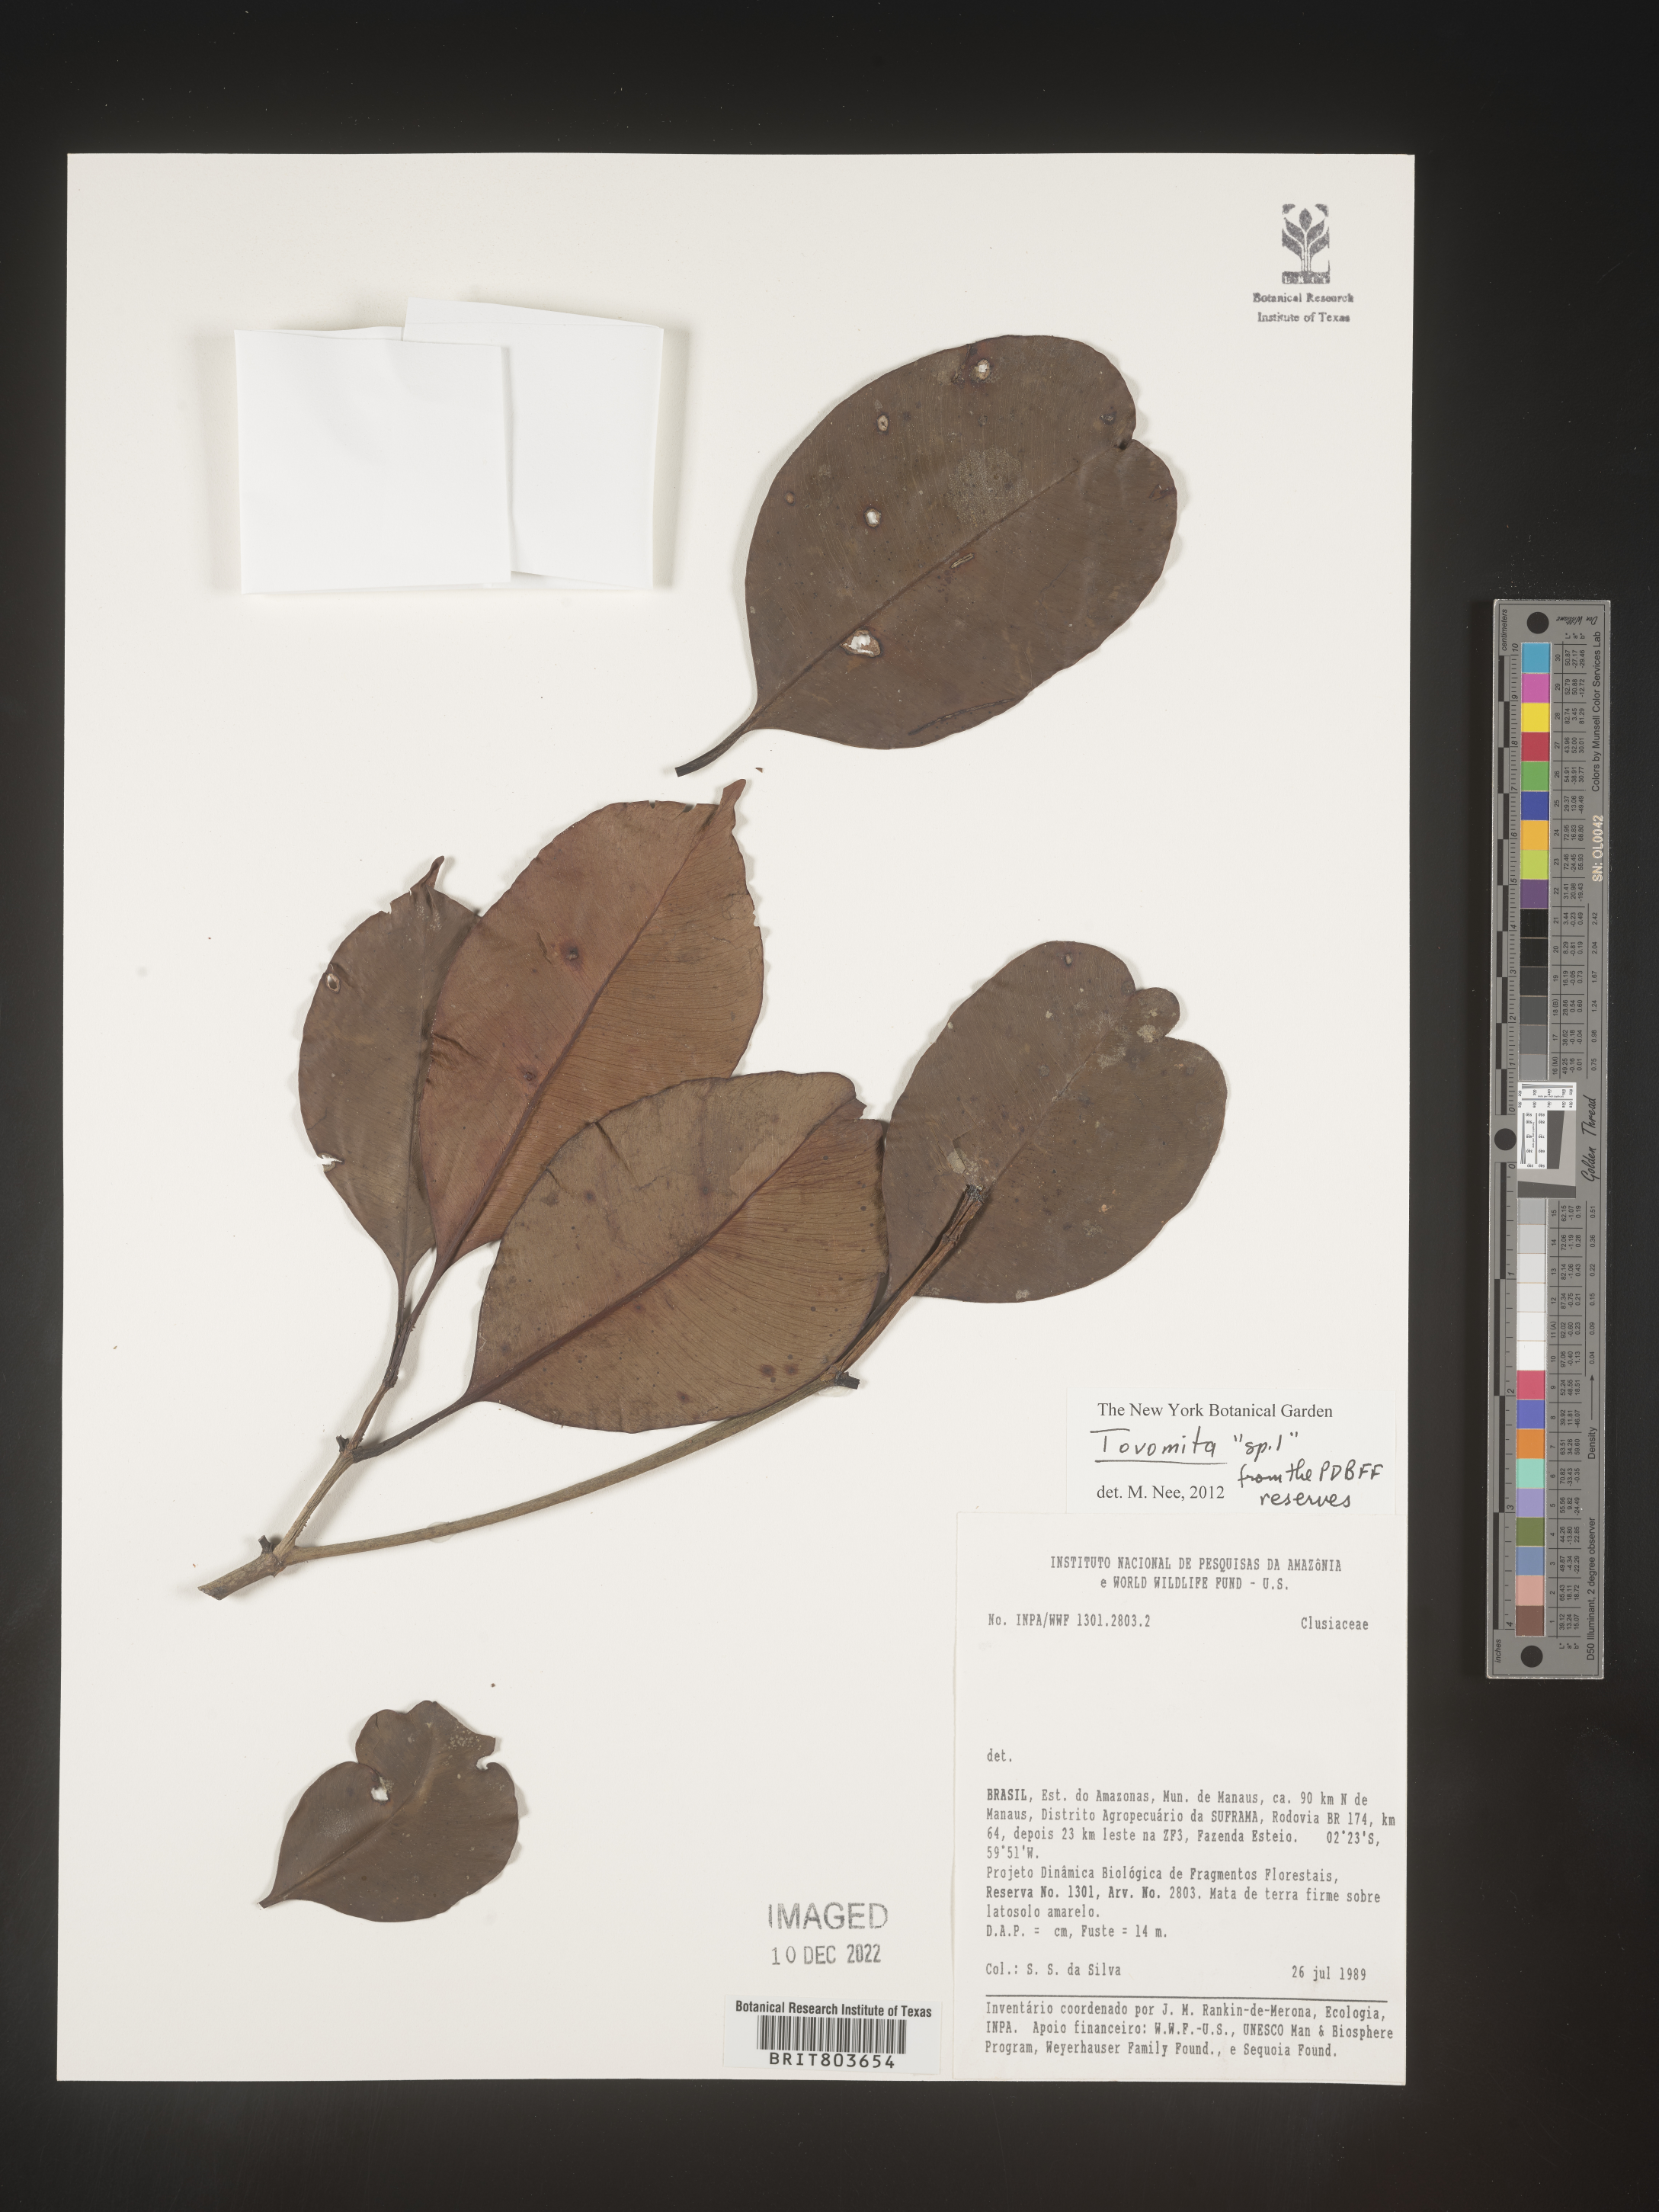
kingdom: Plantae
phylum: Tracheophyta
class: Magnoliopsida
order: Malpighiales
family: Clusiaceae
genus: Tovomita
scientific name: Tovomita
